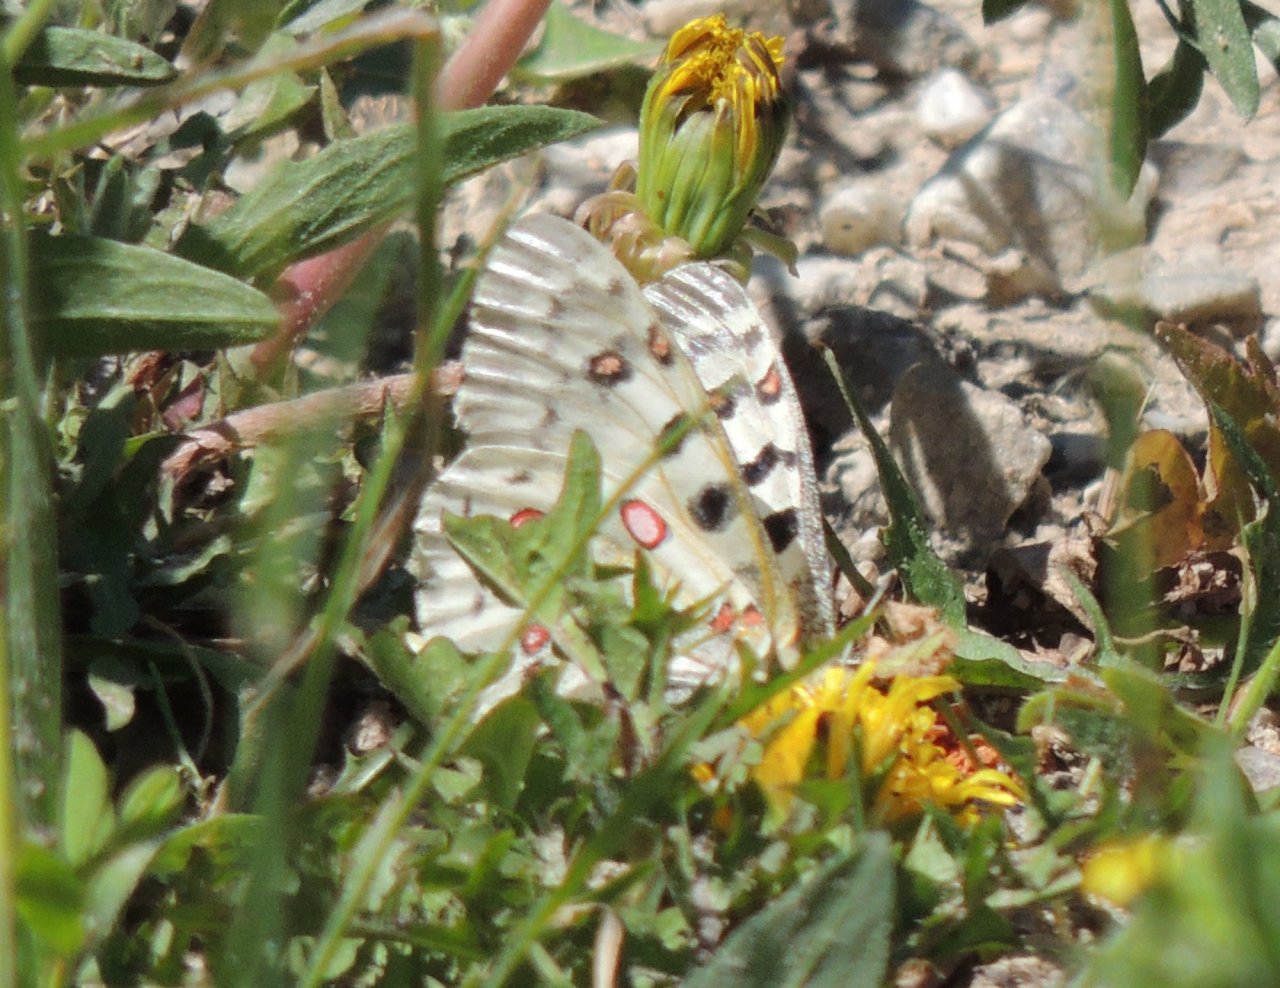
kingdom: Animalia
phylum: Arthropoda
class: Insecta
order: Lepidoptera
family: Papilionidae
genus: Parnassius
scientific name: Parnassius smintheus
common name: Rocky Mountain Parnassian
